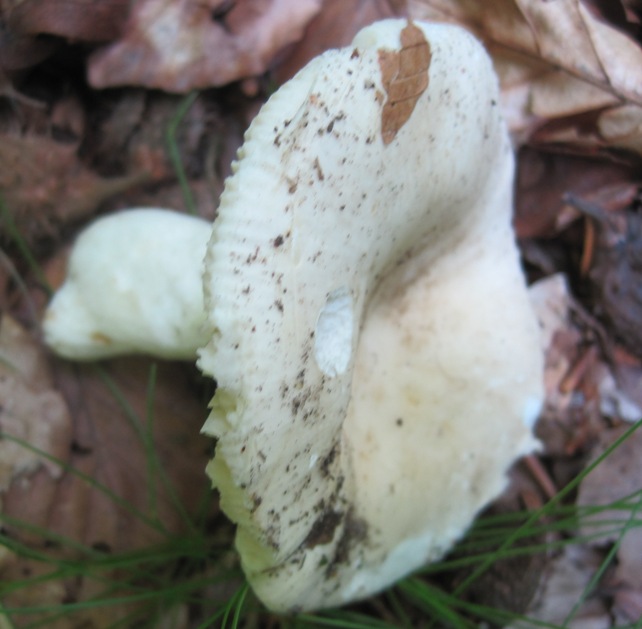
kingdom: Fungi
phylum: Basidiomycota
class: Agaricomycetes
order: Russulales
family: Russulaceae
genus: Russula
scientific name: Russula faustiana
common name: olivengrå skørhat
